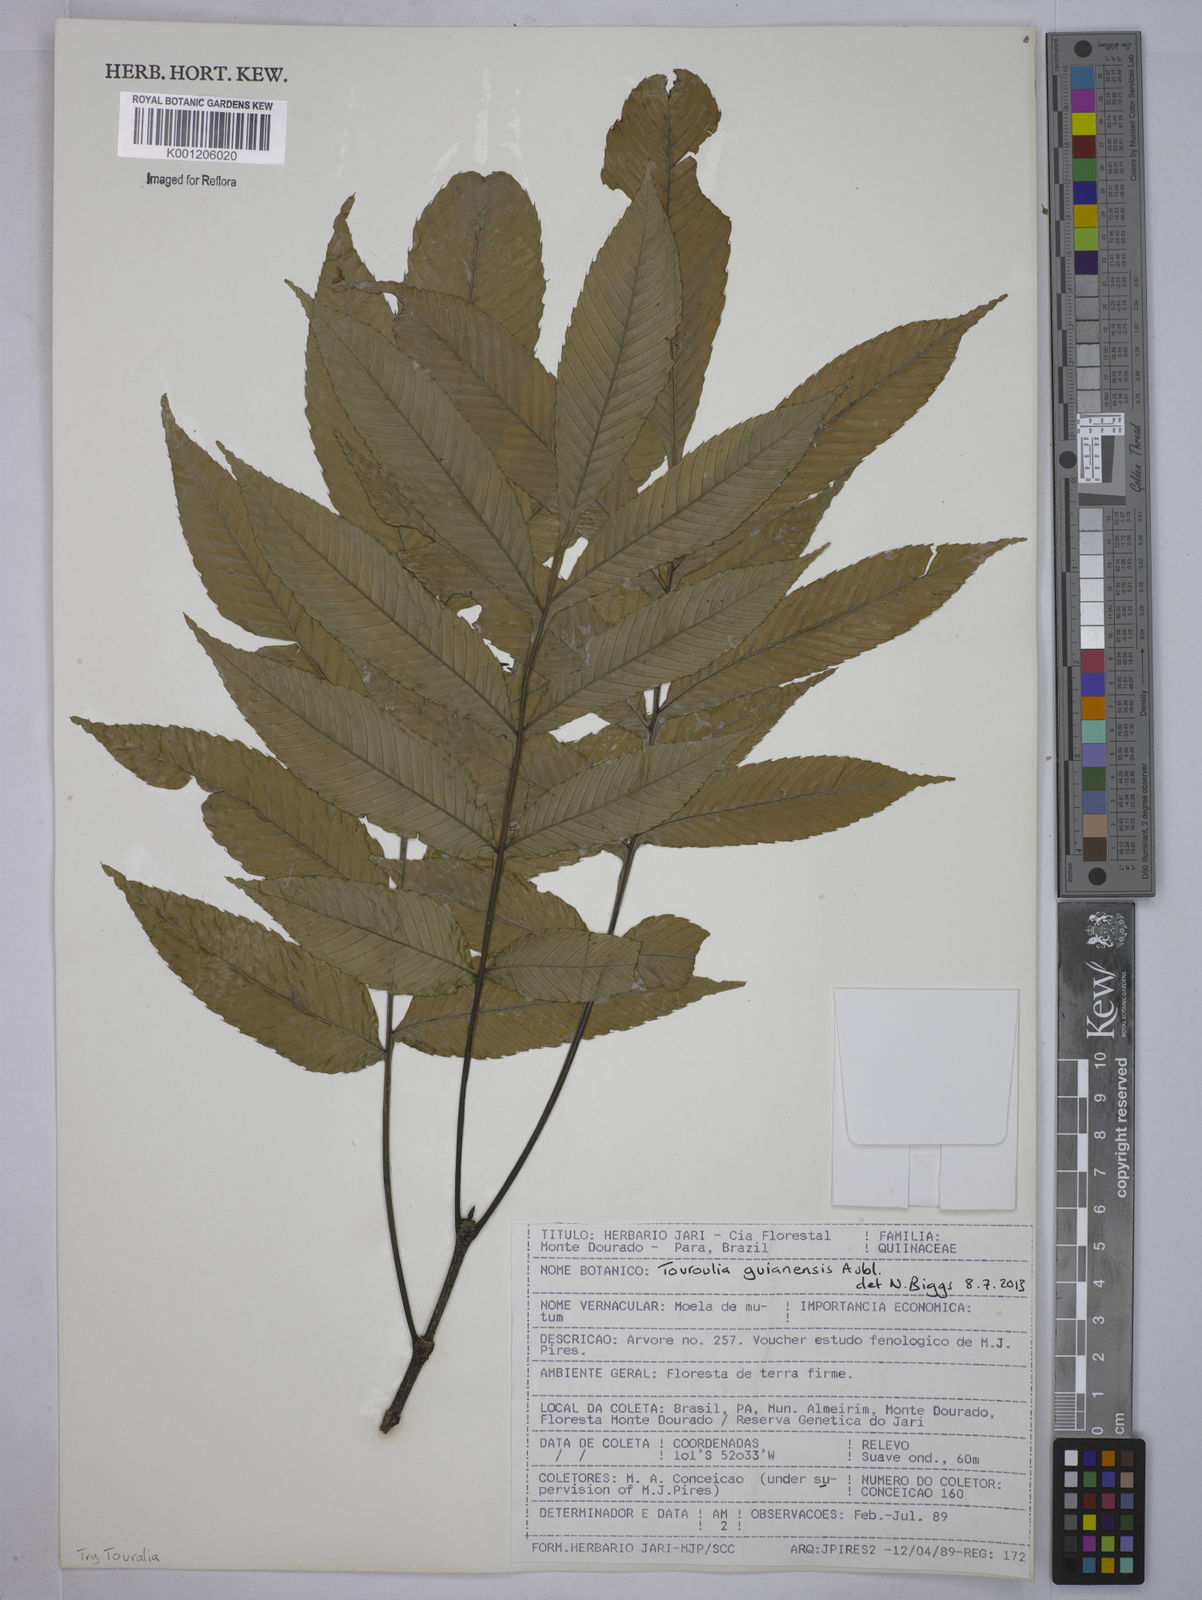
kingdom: Plantae
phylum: Tracheophyta
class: Magnoliopsida
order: Malpighiales
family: Quiinaceae
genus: Touroulia
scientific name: Touroulia guianensis
